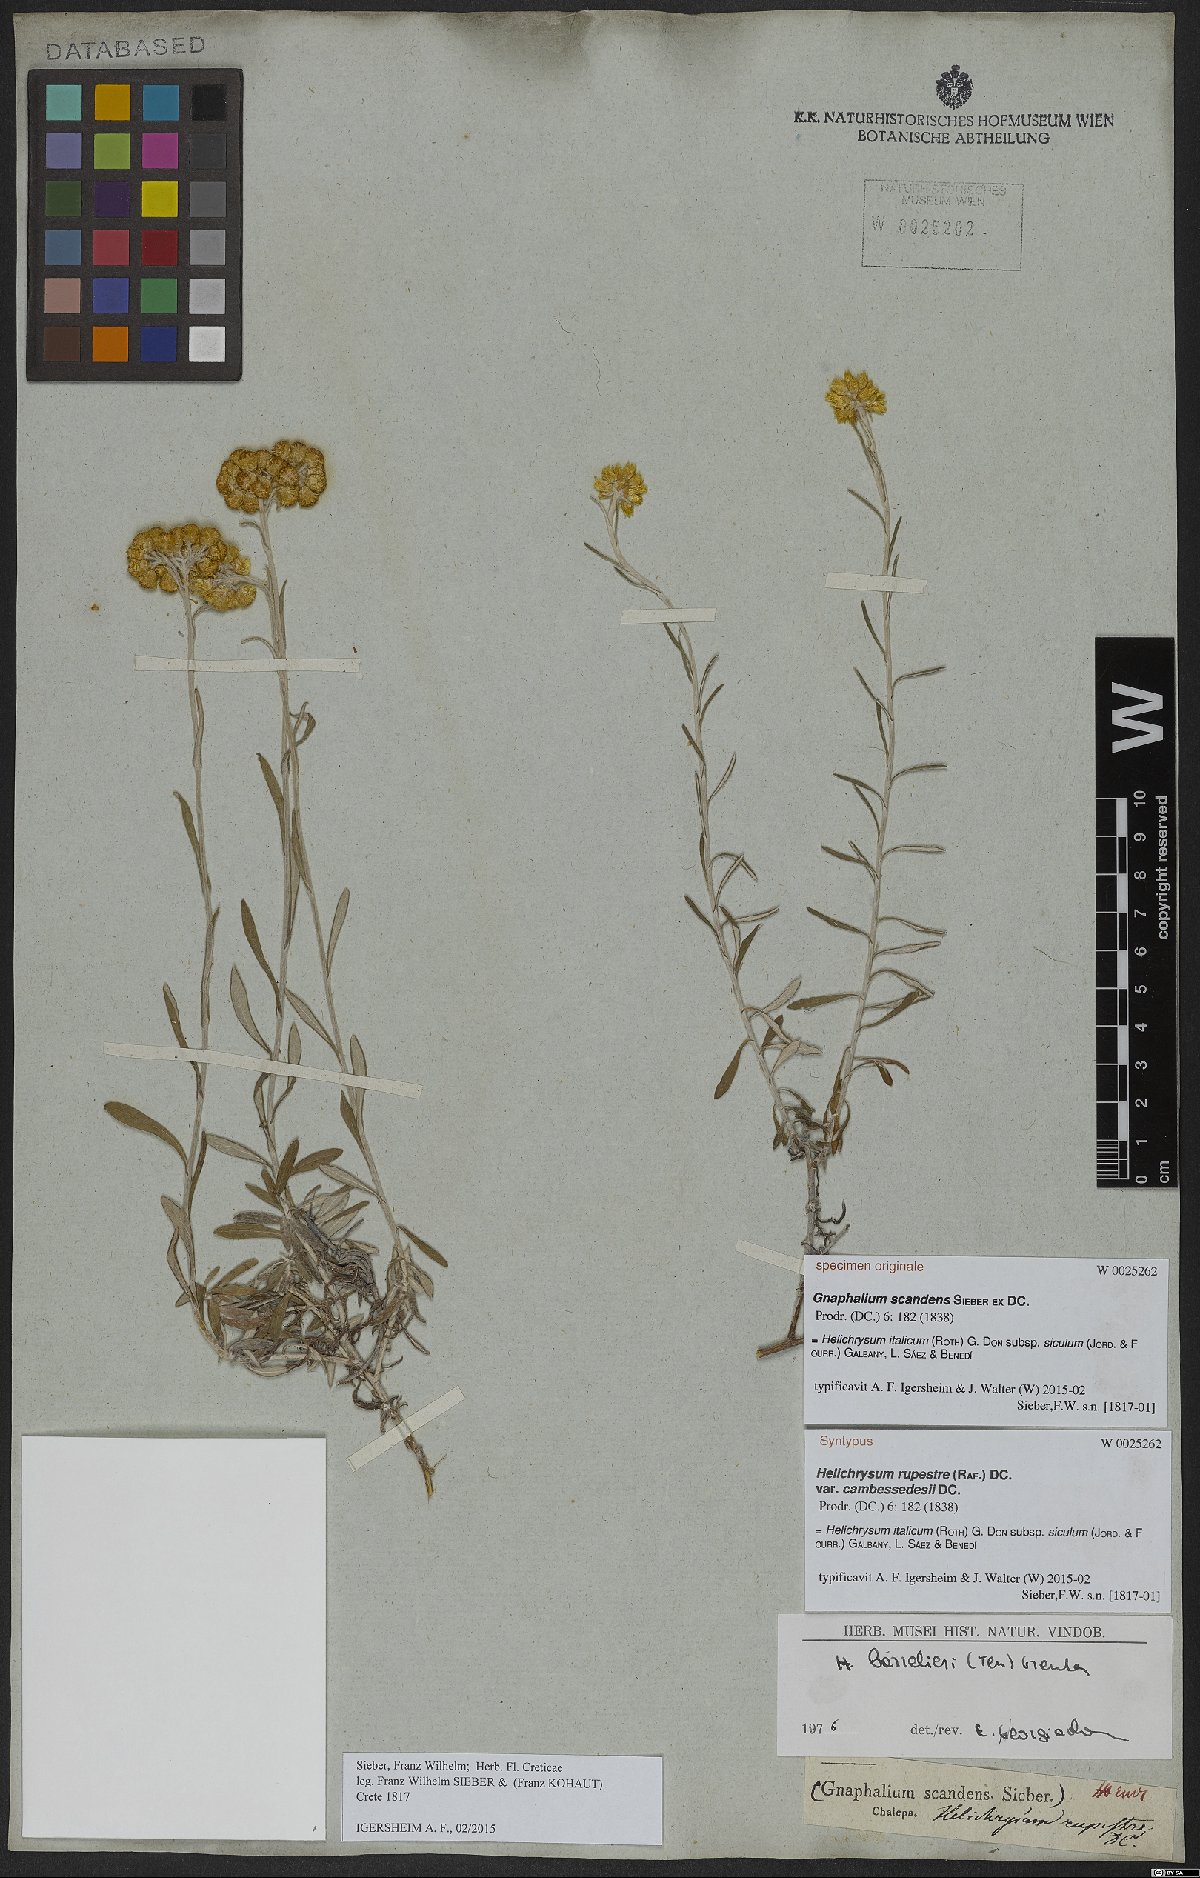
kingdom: Plantae
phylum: Tracheophyta
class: Magnoliopsida
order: Asterales
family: Asteraceae
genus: Helichrysum
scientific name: Helichrysum italicum
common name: Curryplant
